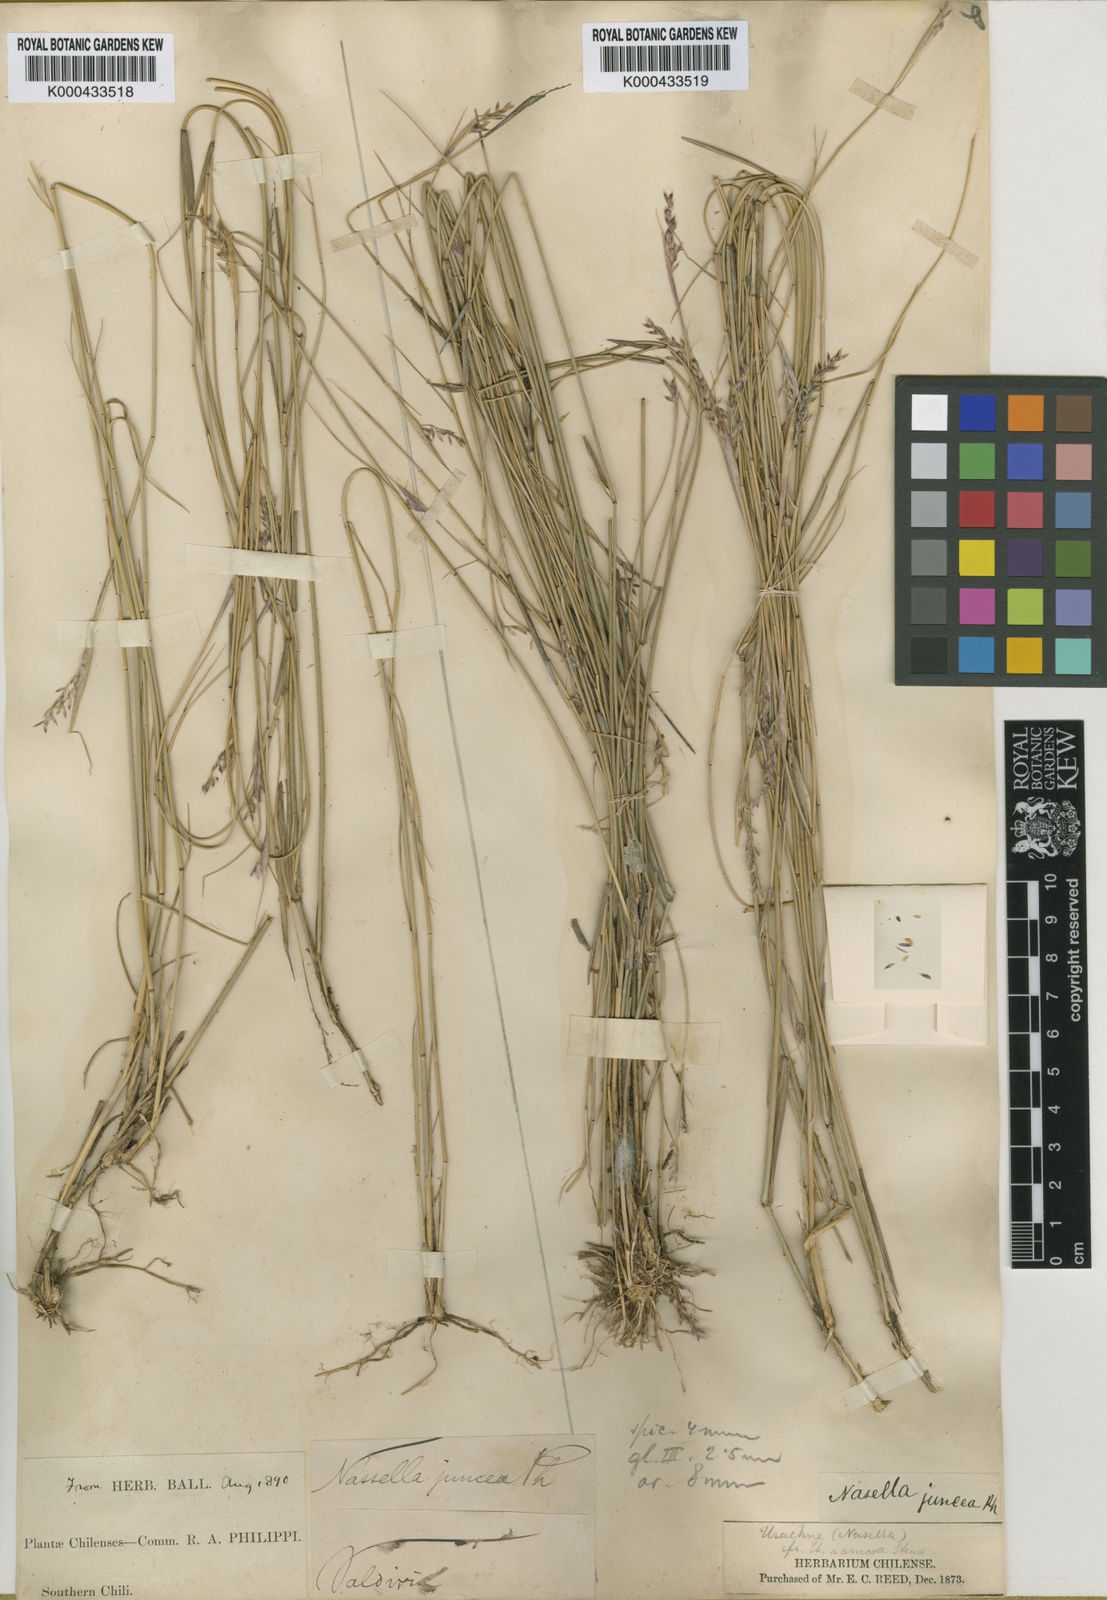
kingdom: Plantae
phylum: Tracheophyta
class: Liliopsida
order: Poales
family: Poaceae
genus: Nassella
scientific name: Nassella chilensis
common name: Chilean needlegrass
